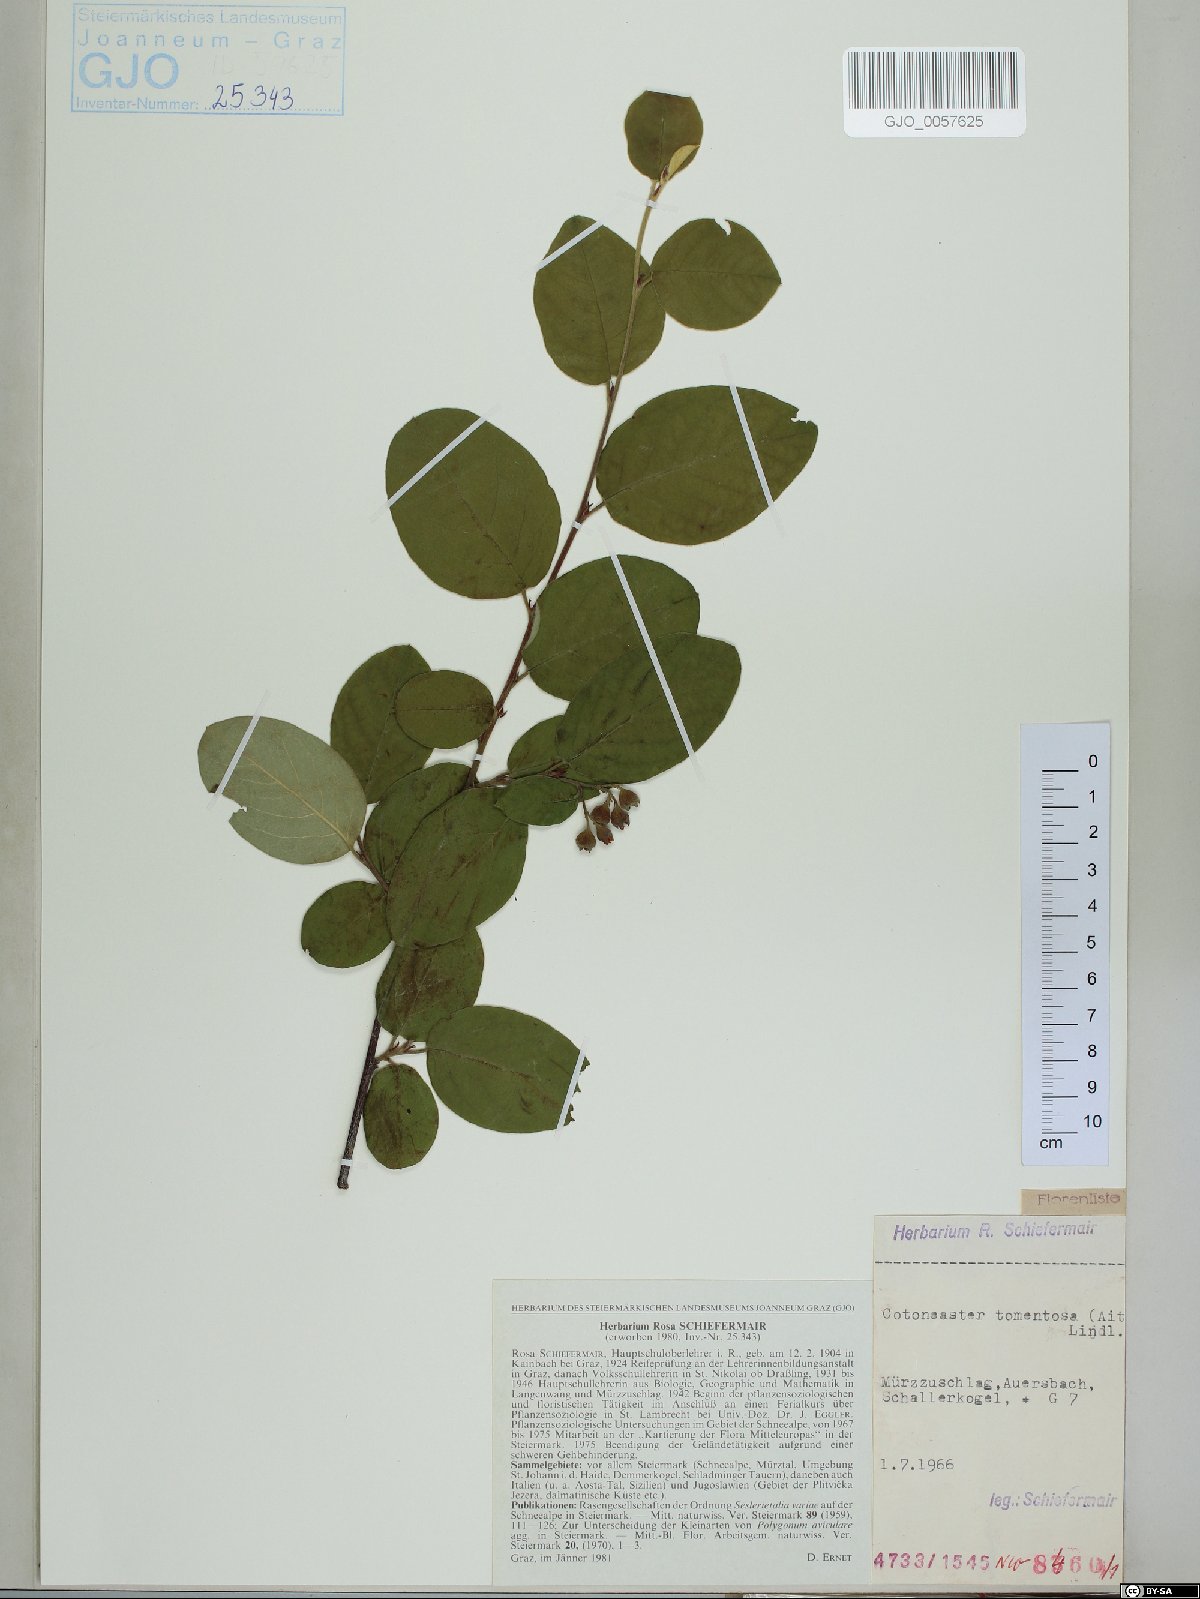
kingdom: Plantae
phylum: Tracheophyta
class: Magnoliopsida
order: Rosales
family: Rosaceae
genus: Cotoneaster
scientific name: Cotoneaster tomentosus
